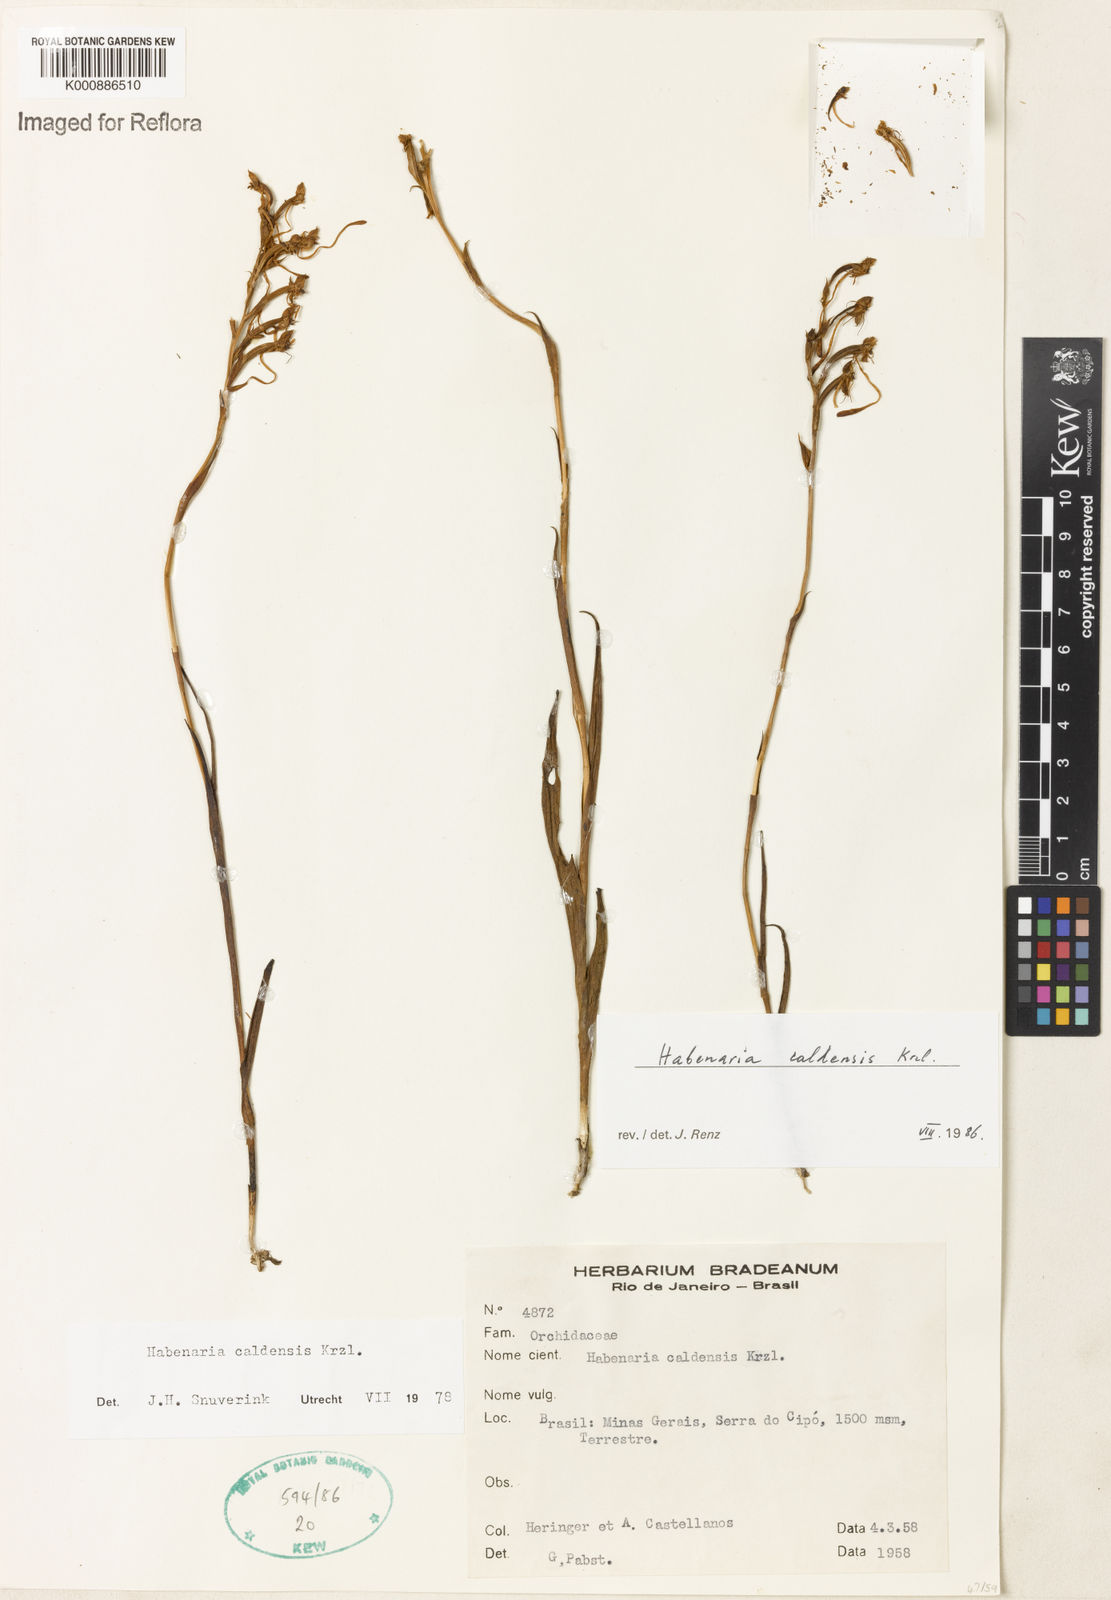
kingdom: Plantae
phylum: Tracheophyta
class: Liliopsida
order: Asparagales
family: Orchidaceae
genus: Habenaria
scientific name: Habenaria caldensis
